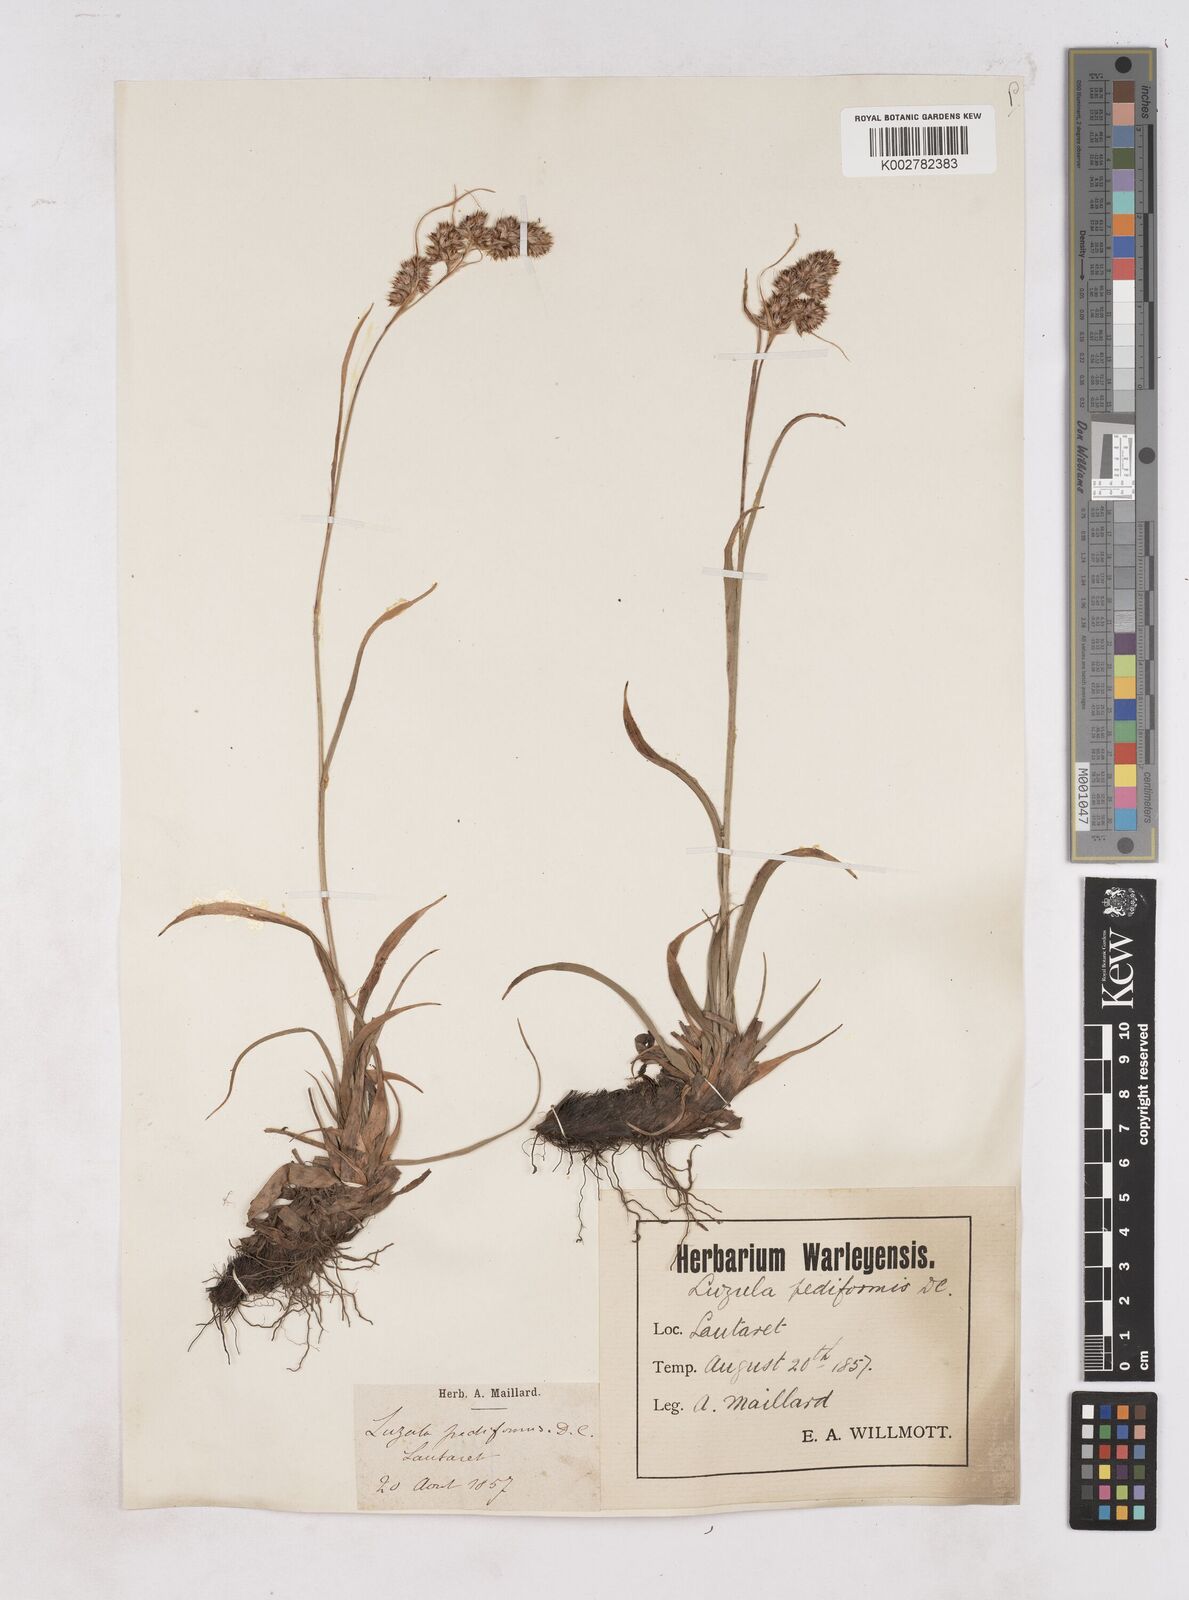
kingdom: Plantae
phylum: Tracheophyta
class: Liliopsida
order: Poales
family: Juncaceae
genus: Luzula
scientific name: Luzula pediformis
